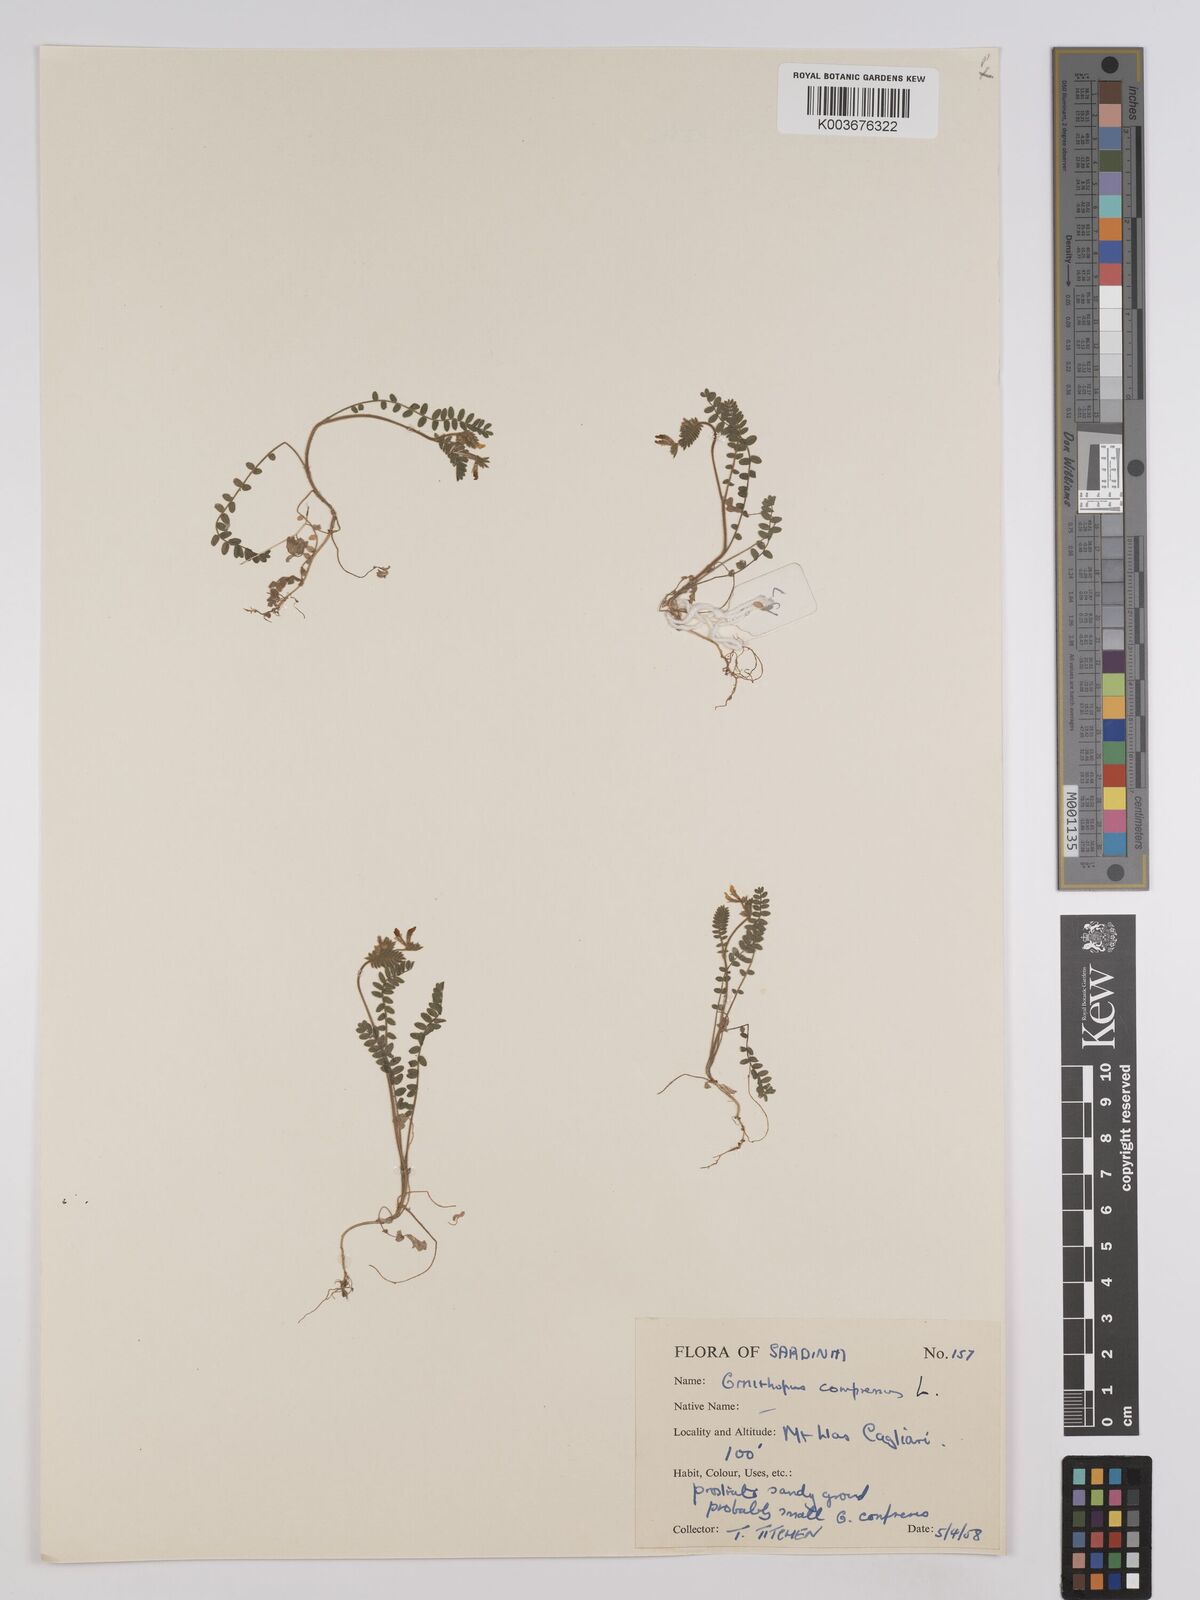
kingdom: Plantae
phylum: Tracheophyta
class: Magnoliopsida
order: Fabales
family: Fabaceae
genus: Ornithopus
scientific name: Ornithopus compressus
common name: Yellow serradella
